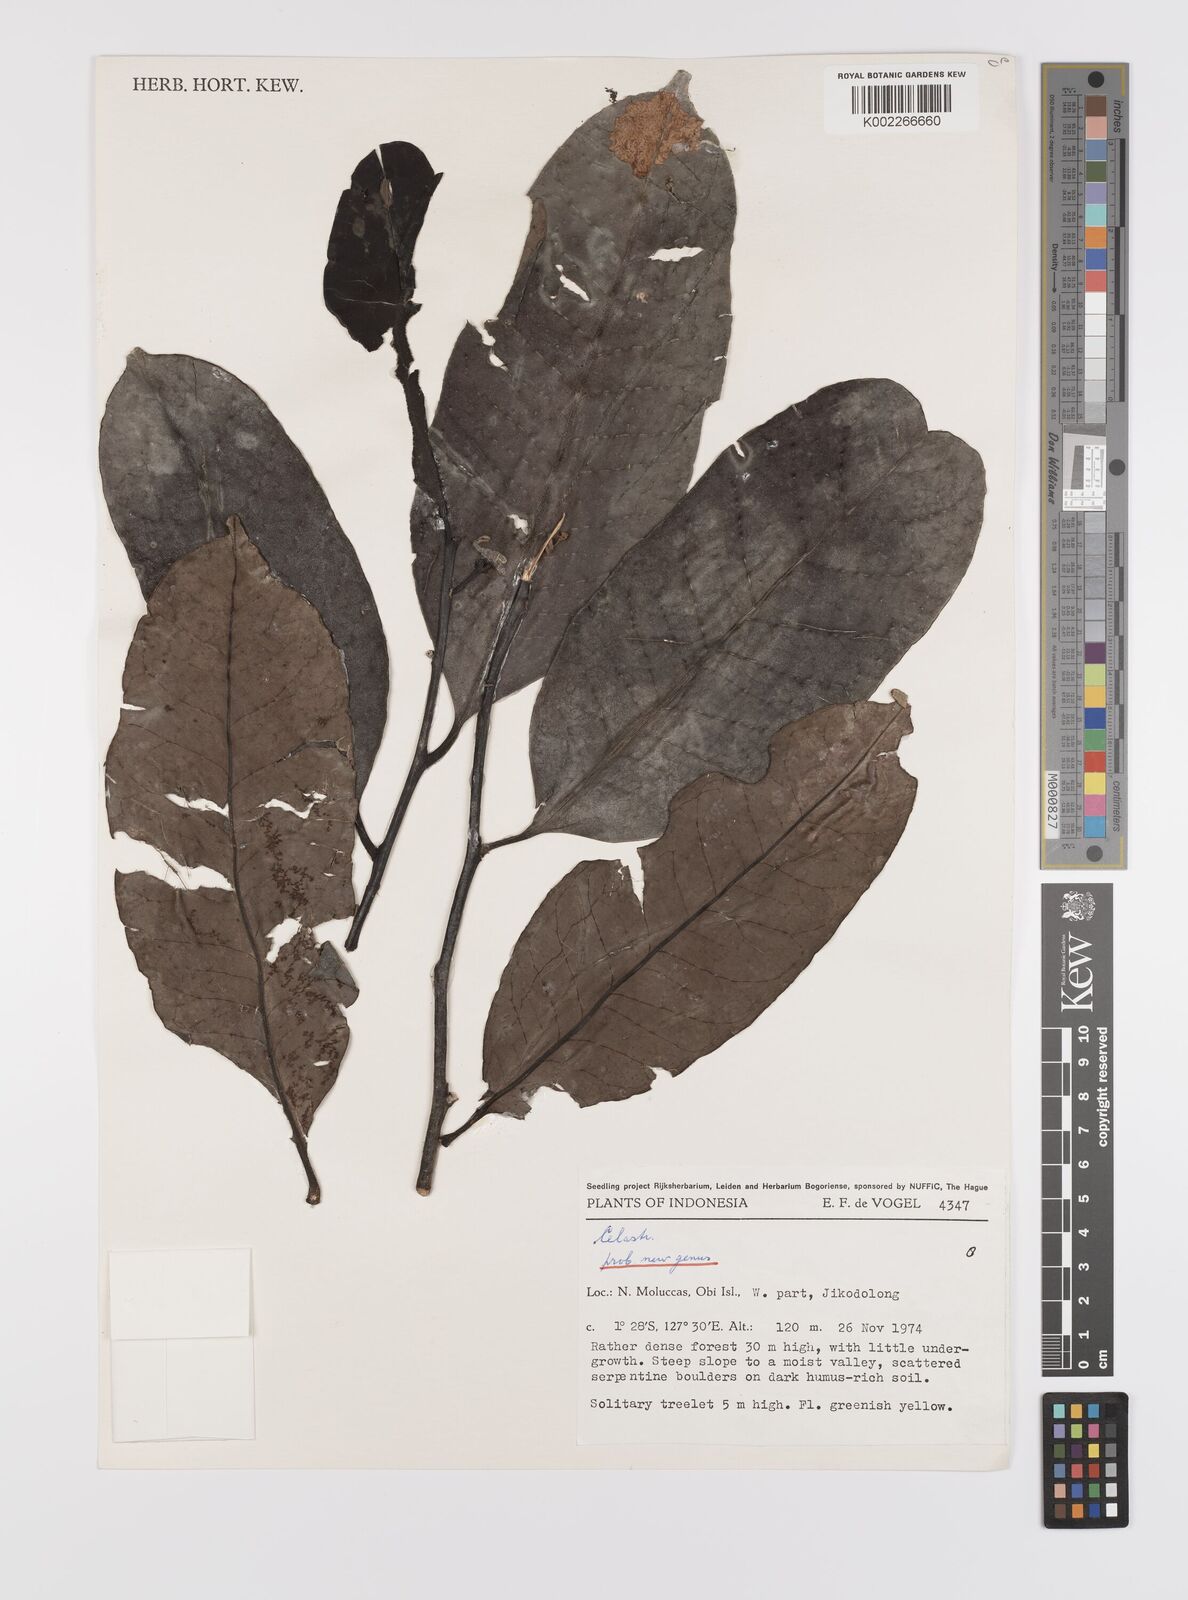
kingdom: Plantae
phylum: Tracheophyta
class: Magnoliopsida
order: Celastrales
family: Celastraceae
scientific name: Celastraceae
